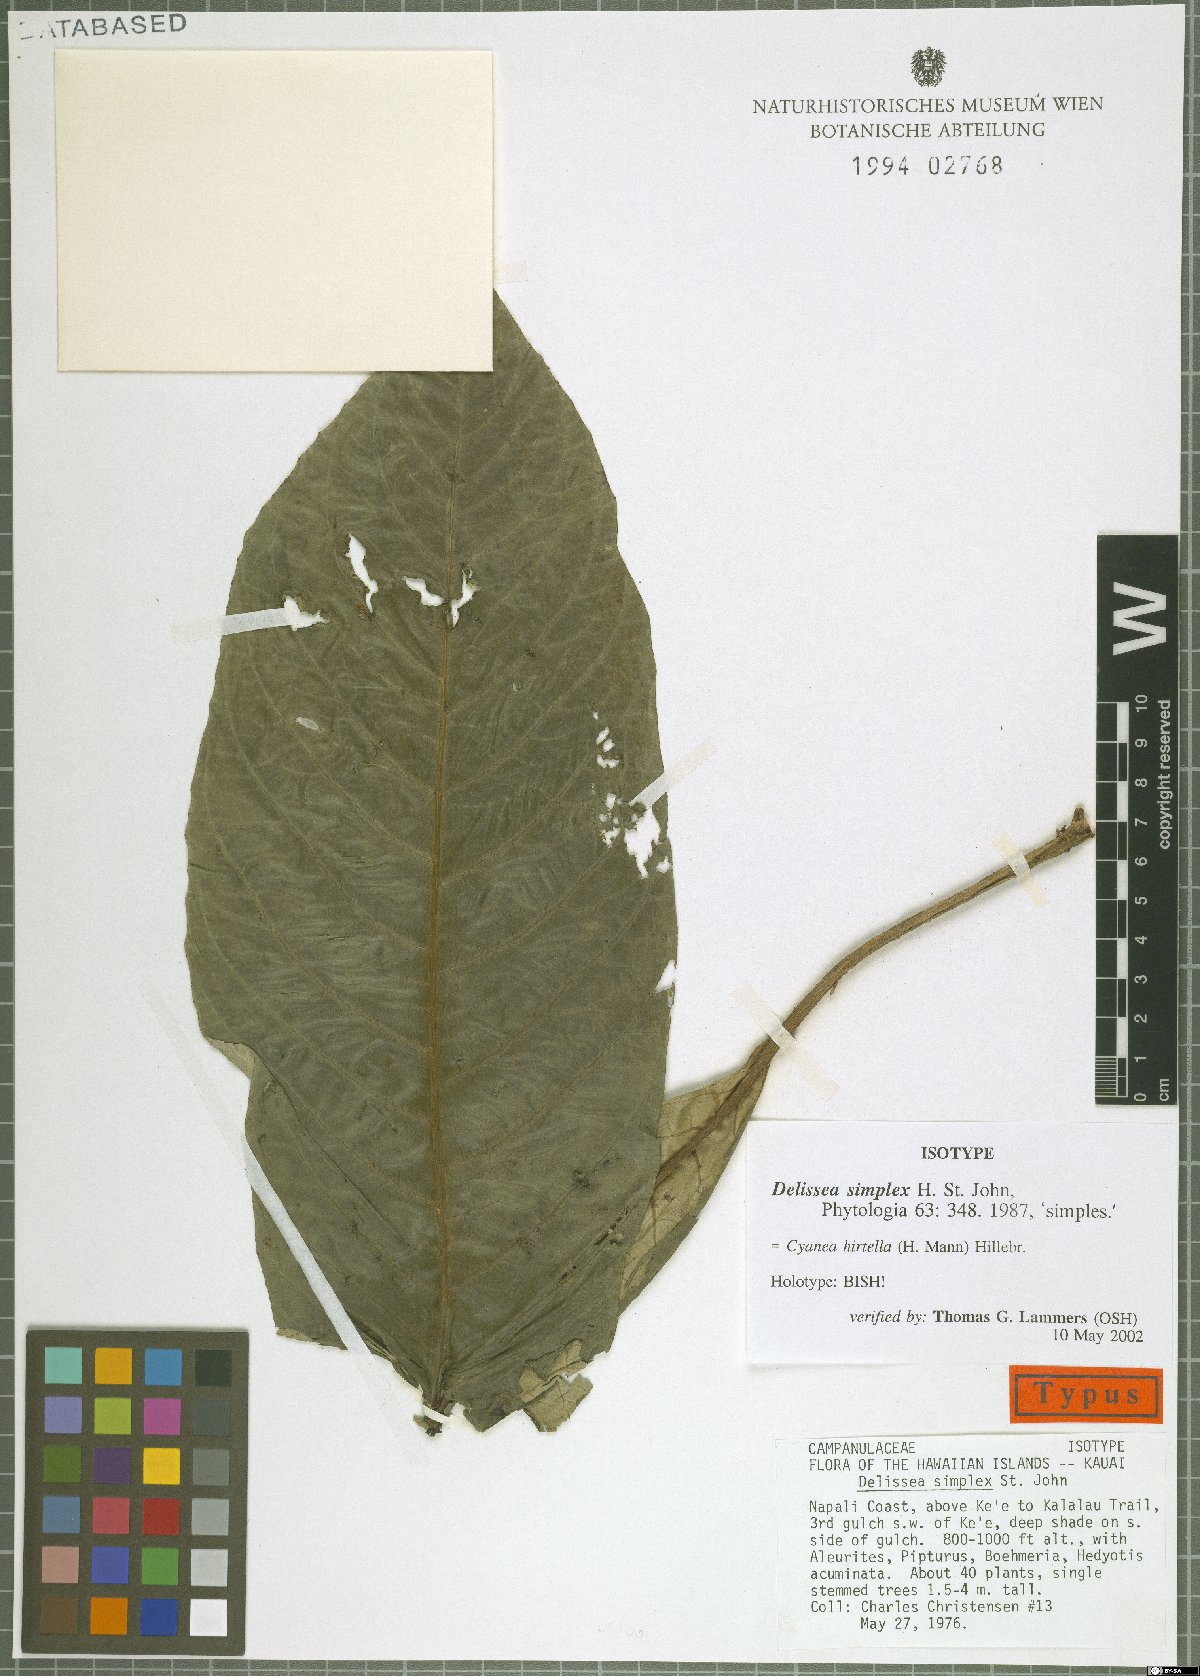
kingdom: Plantae
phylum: Tracheophyta
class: Magnoliopsida
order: Asterales
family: Campanulaceae
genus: Cyanea
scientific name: Cyanea hirtella
